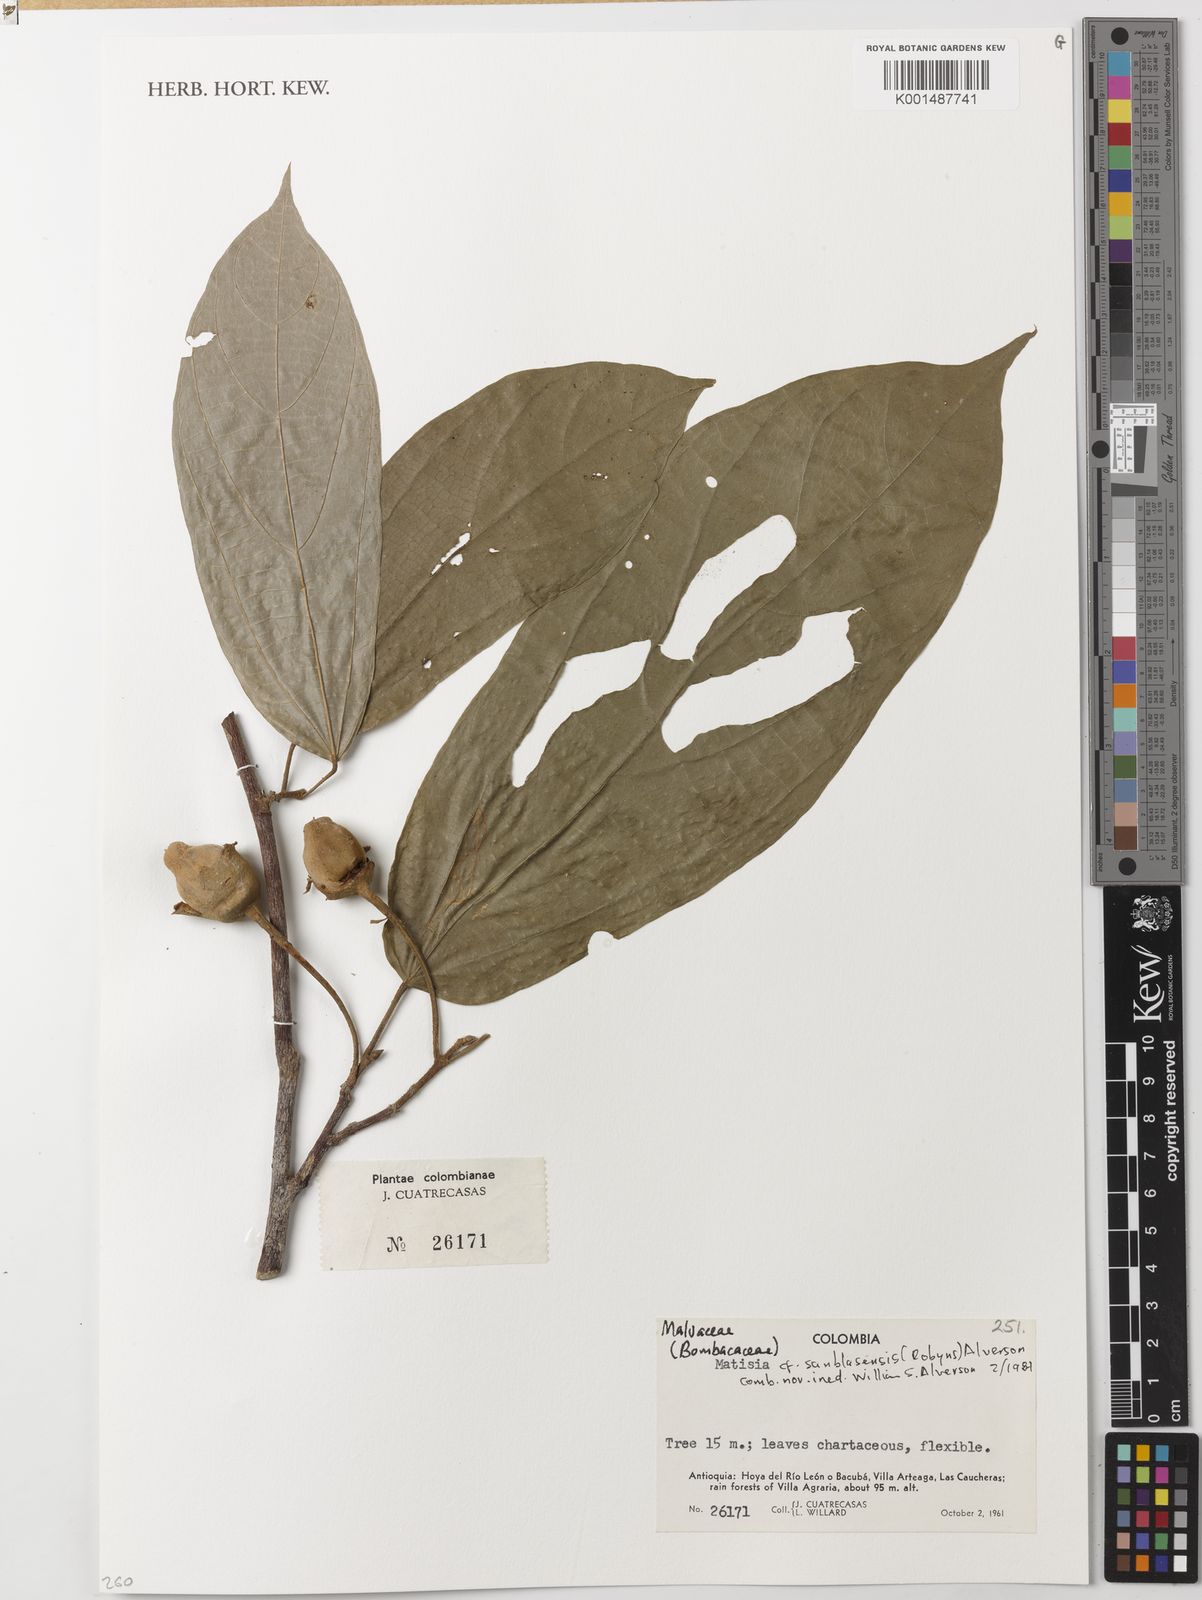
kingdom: Plantae
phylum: Tracheophyta
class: Magnoliopsida
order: Malvales
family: Malvaceae
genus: Matisia
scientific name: Matisia sanblasensis
